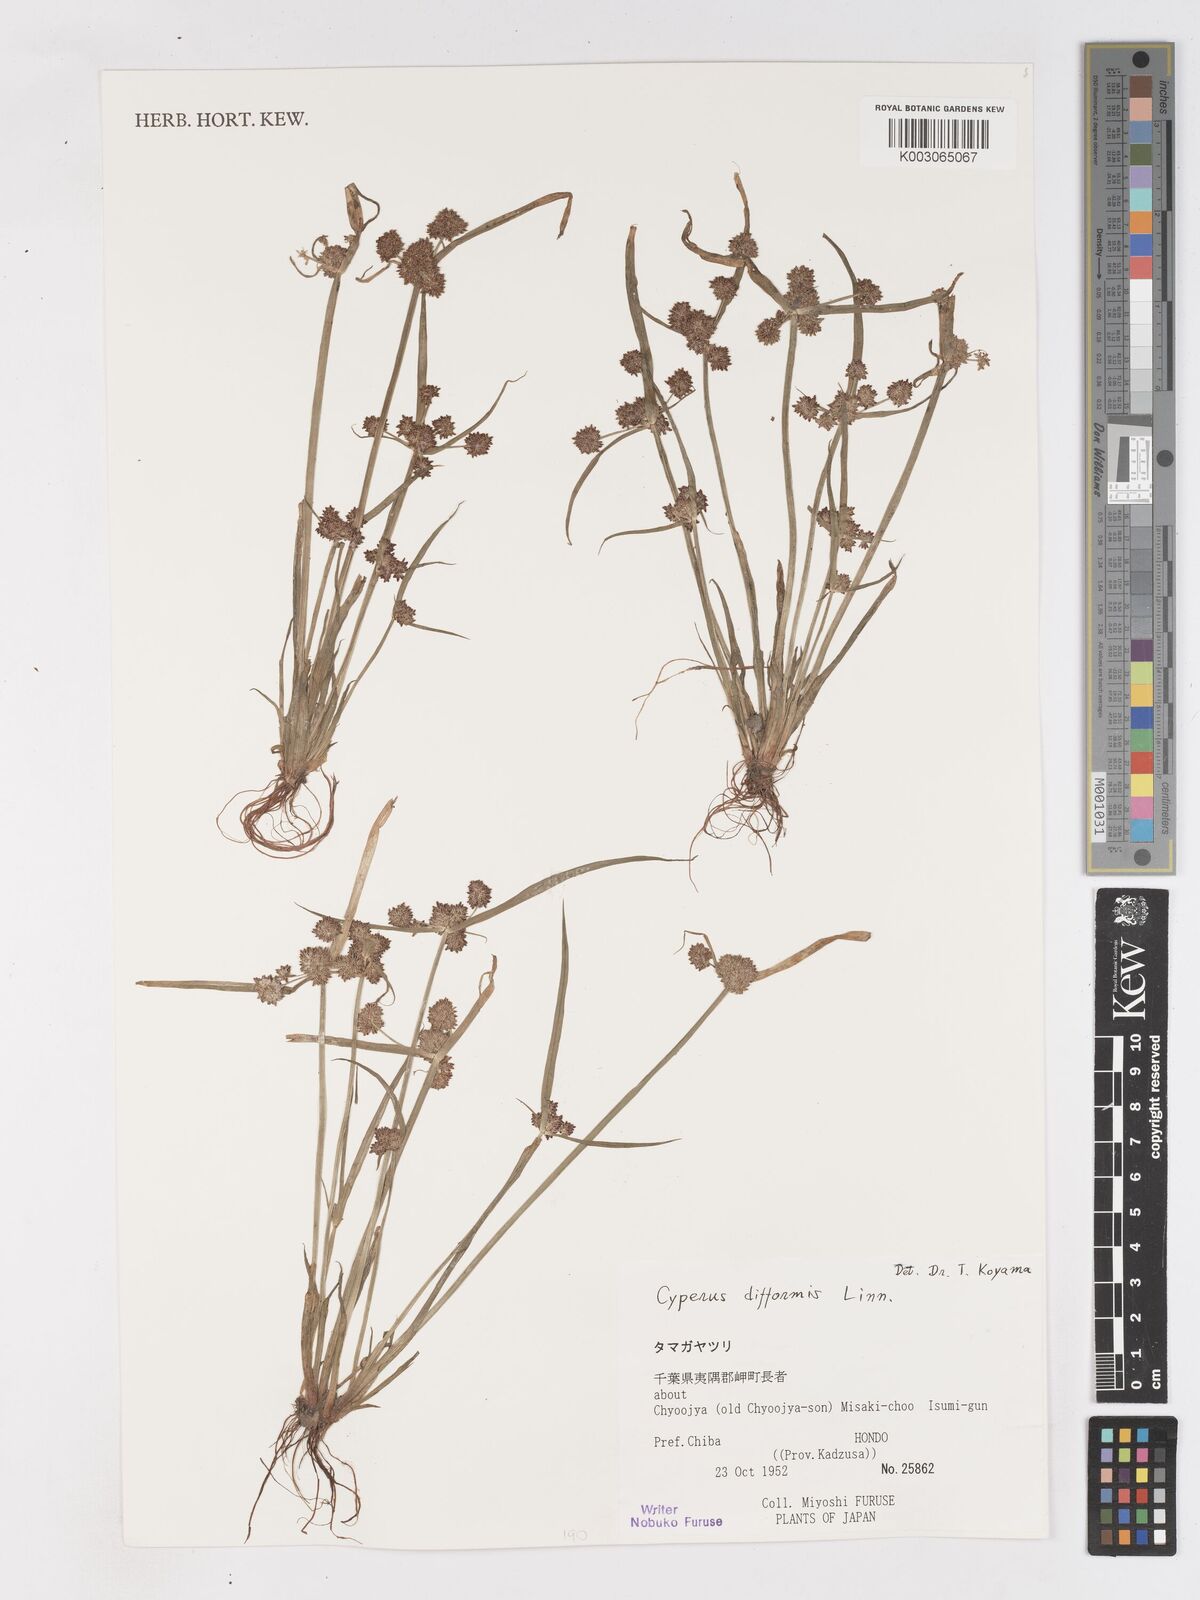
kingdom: Plantae
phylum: Tracheophyta
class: Liliopsida
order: Poales
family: Cyperaceae
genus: Cyperus
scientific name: Cyperus difformis
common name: Variable flatsedge
